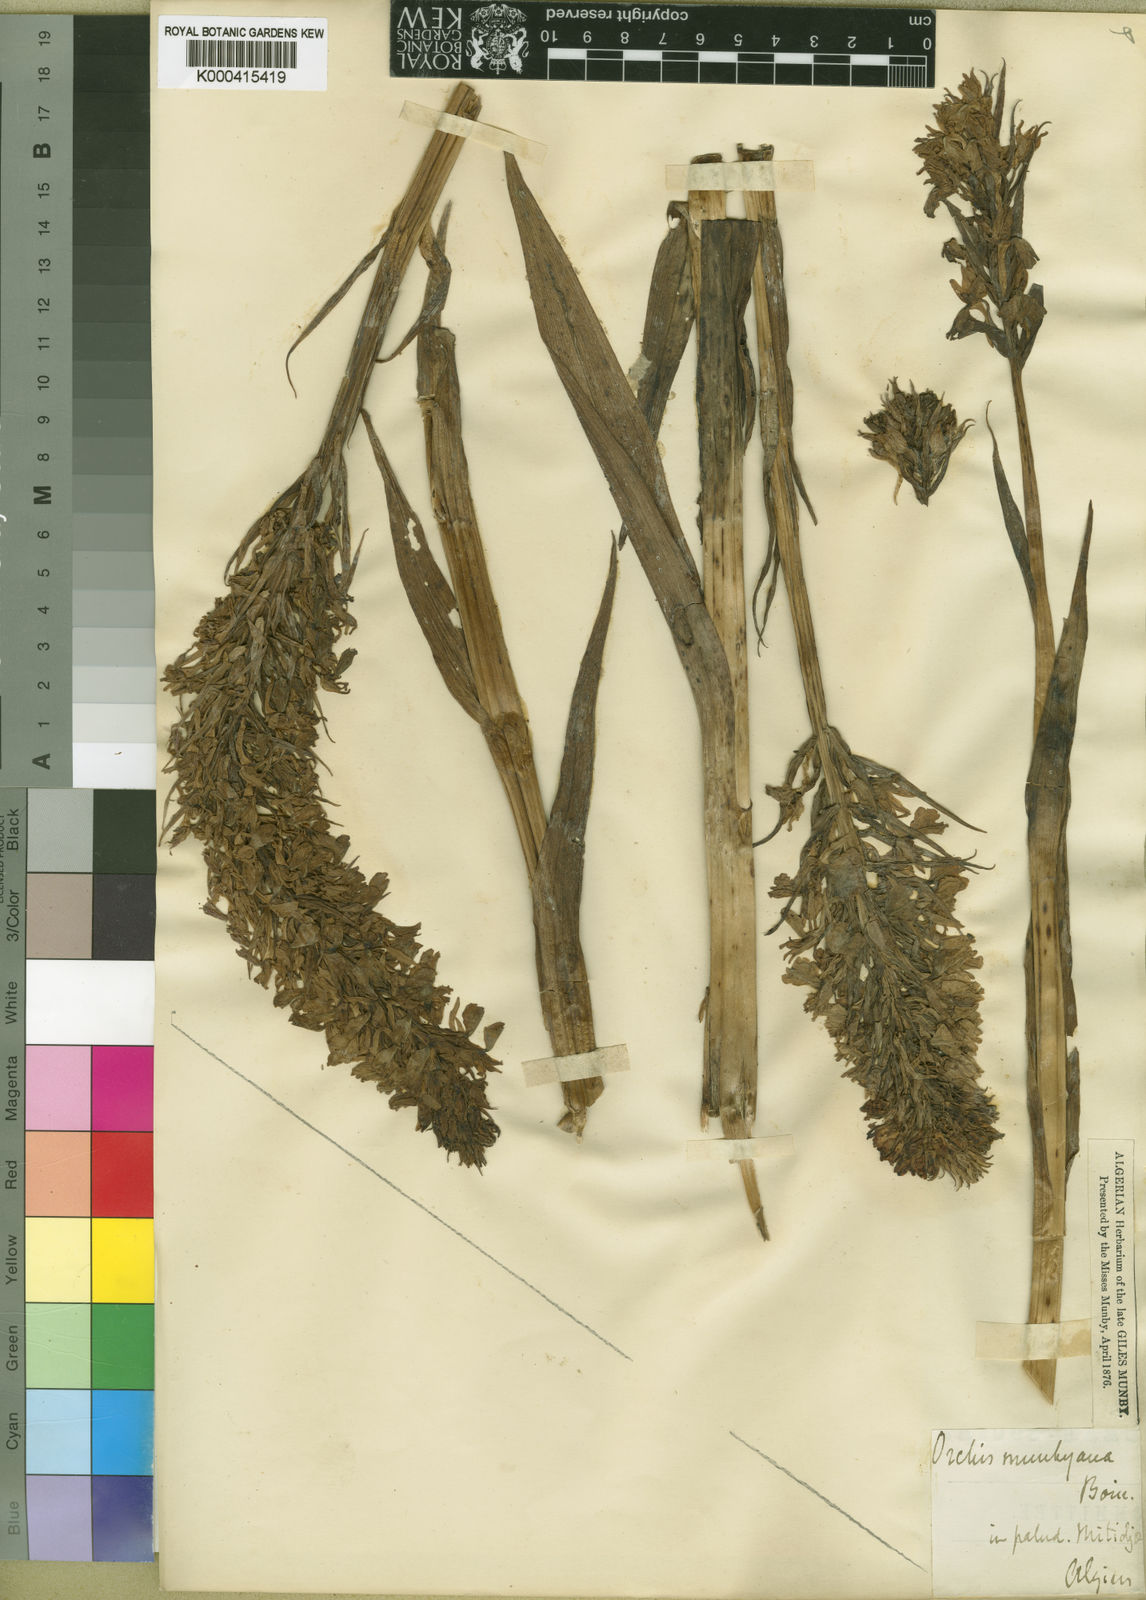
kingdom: Plantae
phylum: Tracheophyta
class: Liliopsida
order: Asparagales
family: Orchidaceae
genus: Dactylorhiza
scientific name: Dactylorhiza
